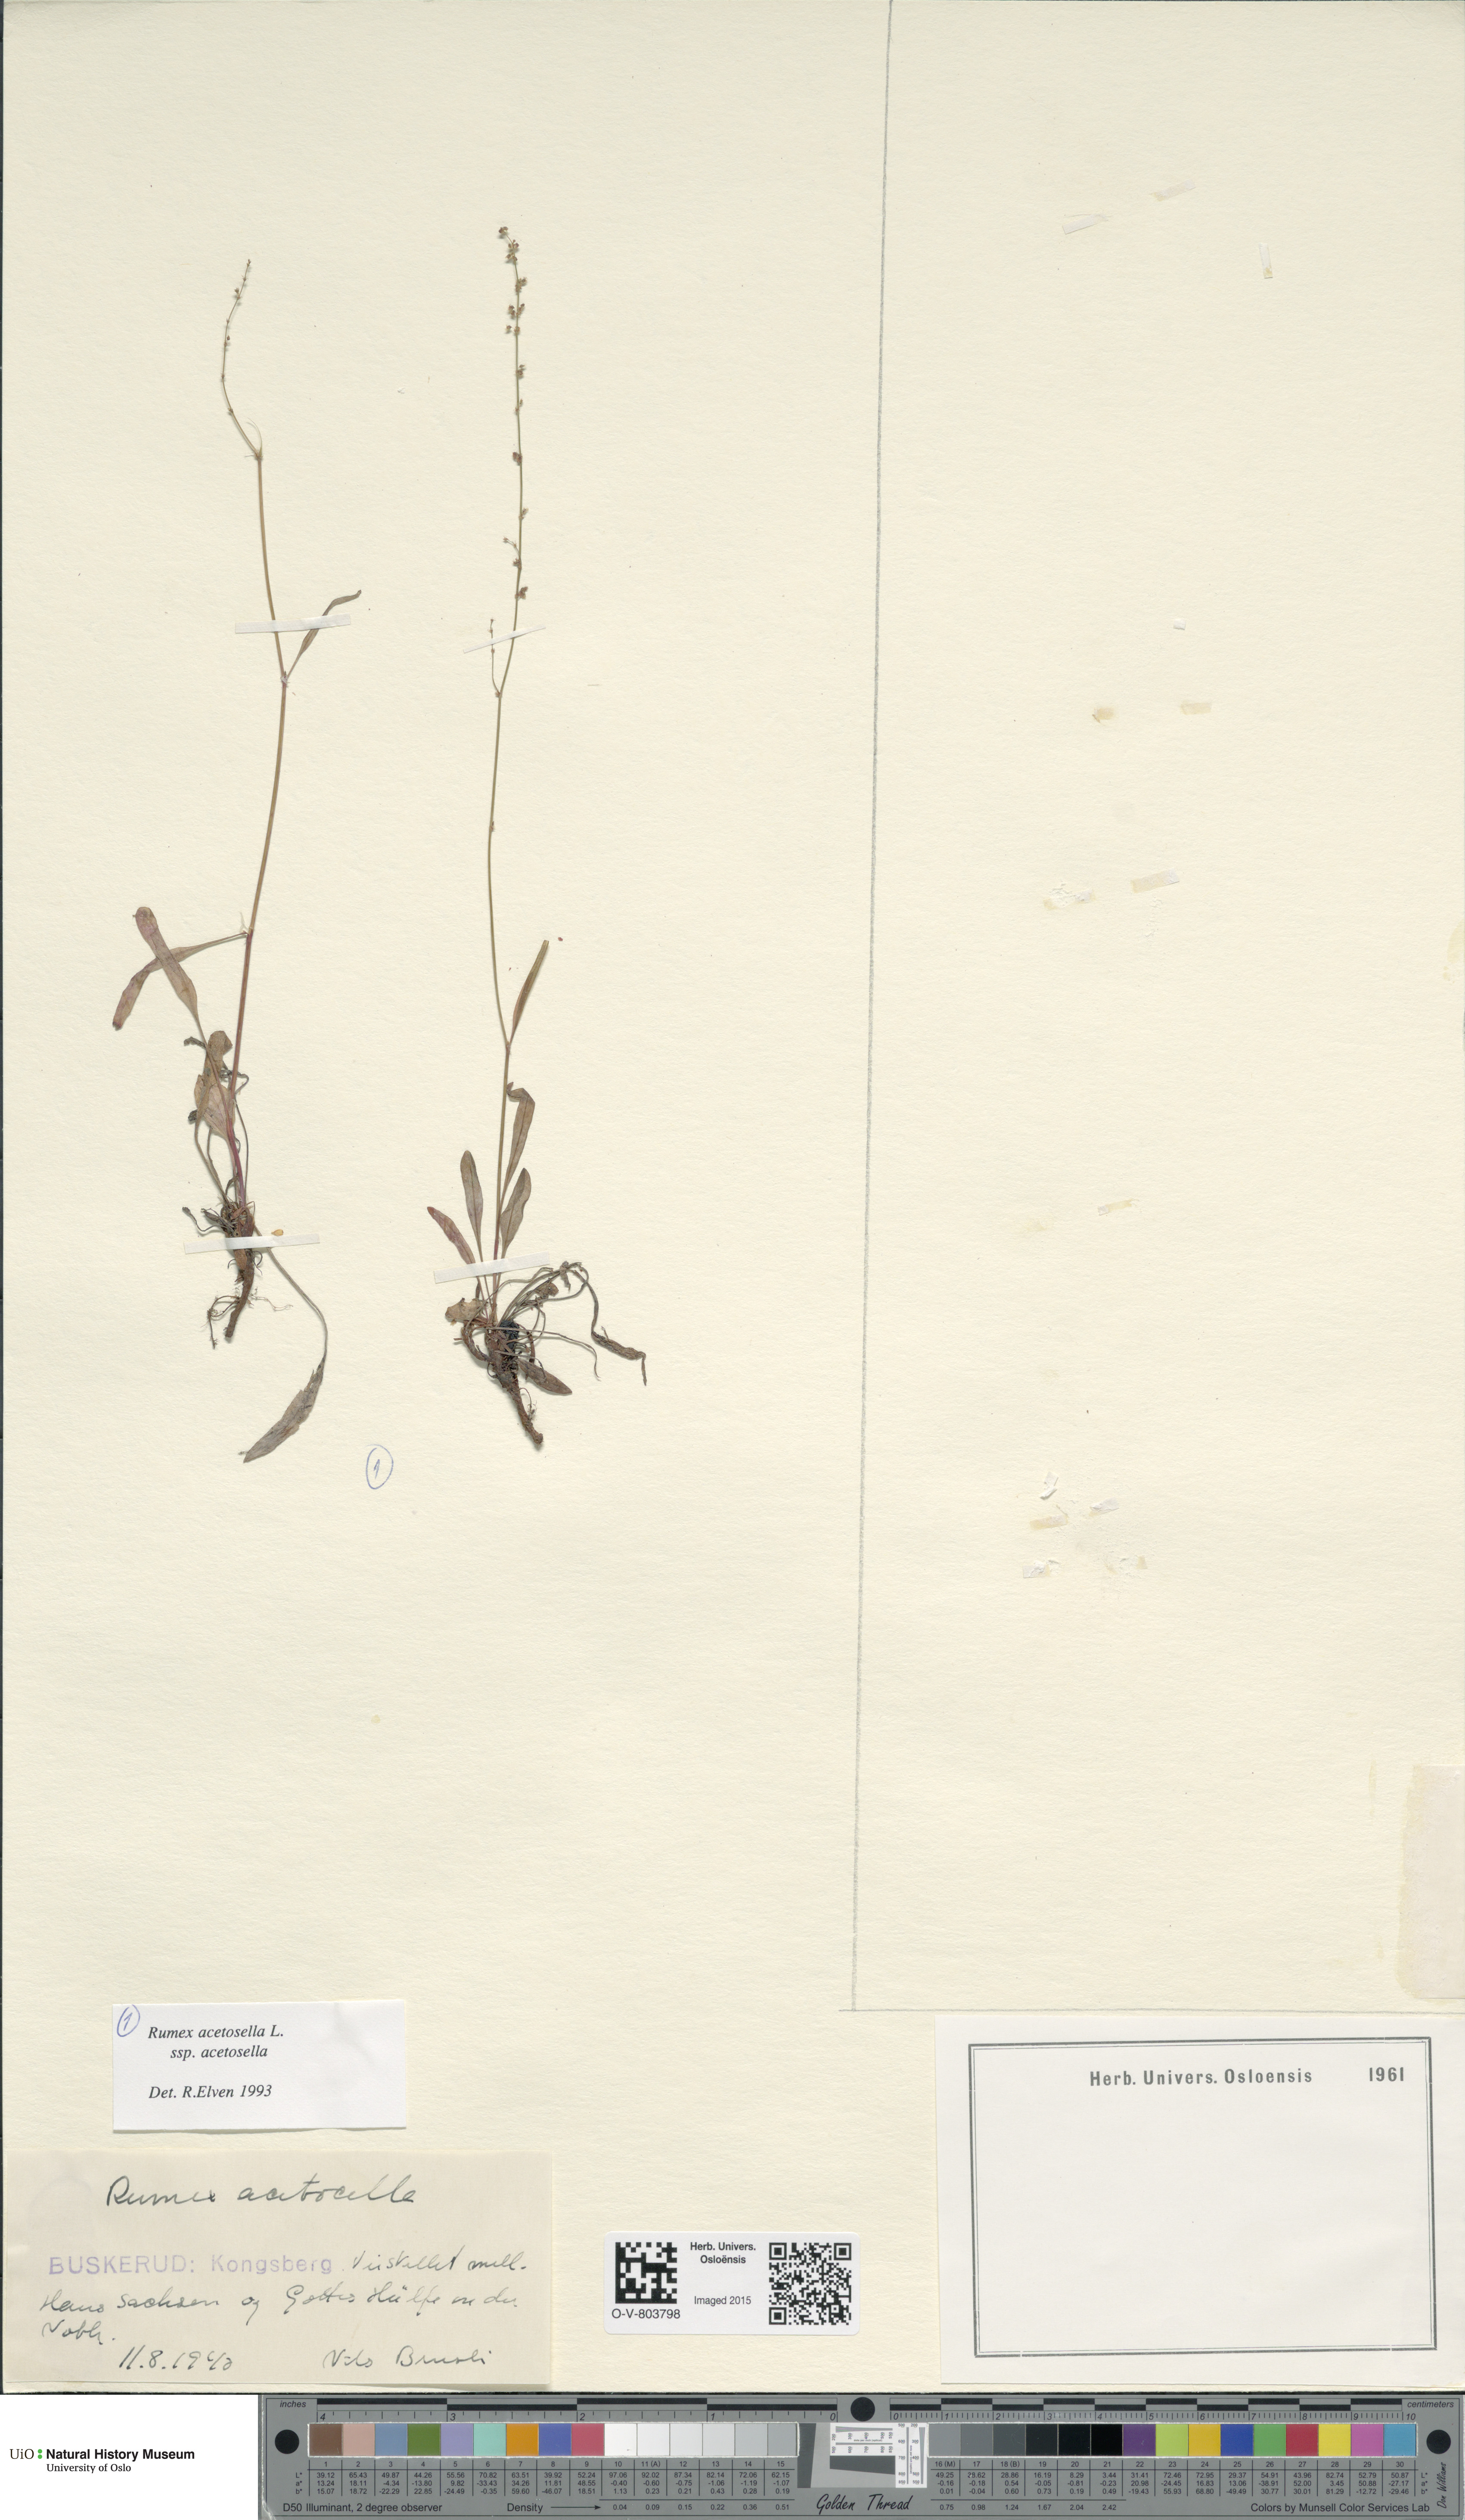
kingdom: Plantae
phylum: Tracheophyta
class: Magnoliopsida
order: Caryophyllales
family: Polygonaceae
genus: Rumex
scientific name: Rumex acetosella
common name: Common sheep sorrel
